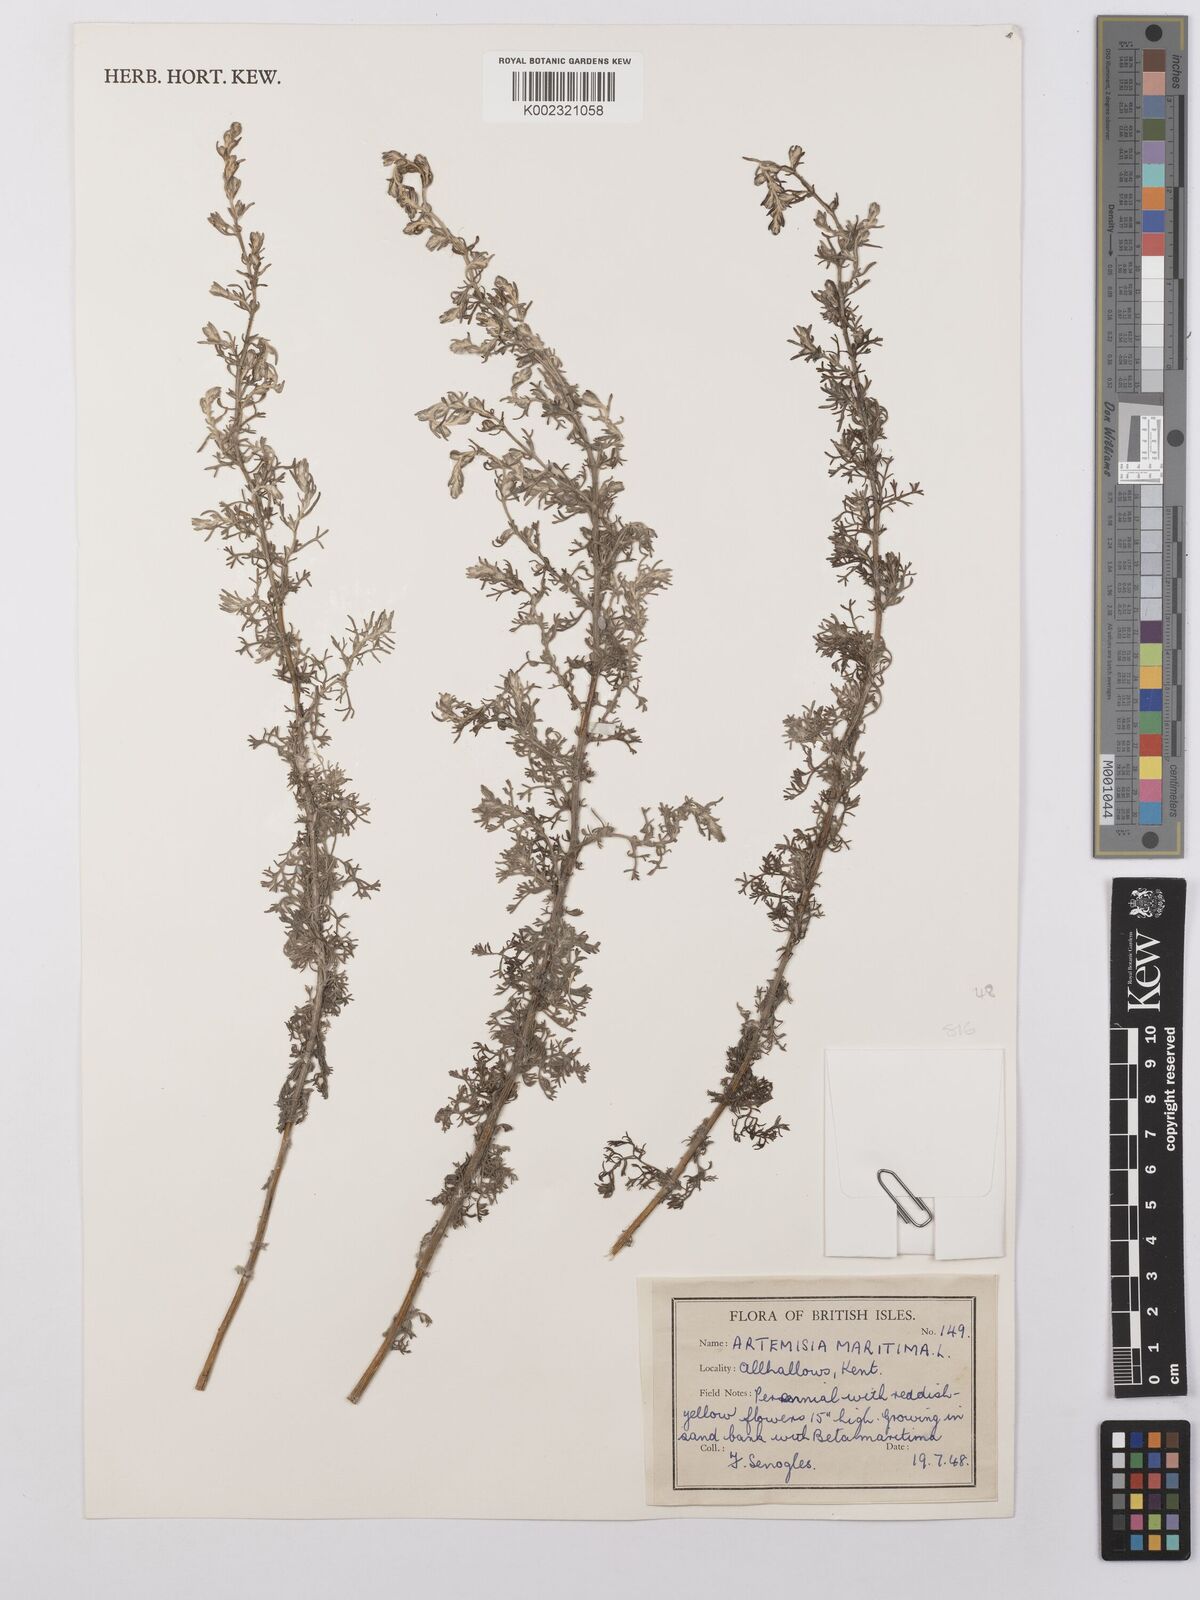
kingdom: Plantae
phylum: Tracheophyta
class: Magnoliopsida
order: Asterales
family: Asteraceae
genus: Artemisia
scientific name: Artemisia maritima
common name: Wormseed
